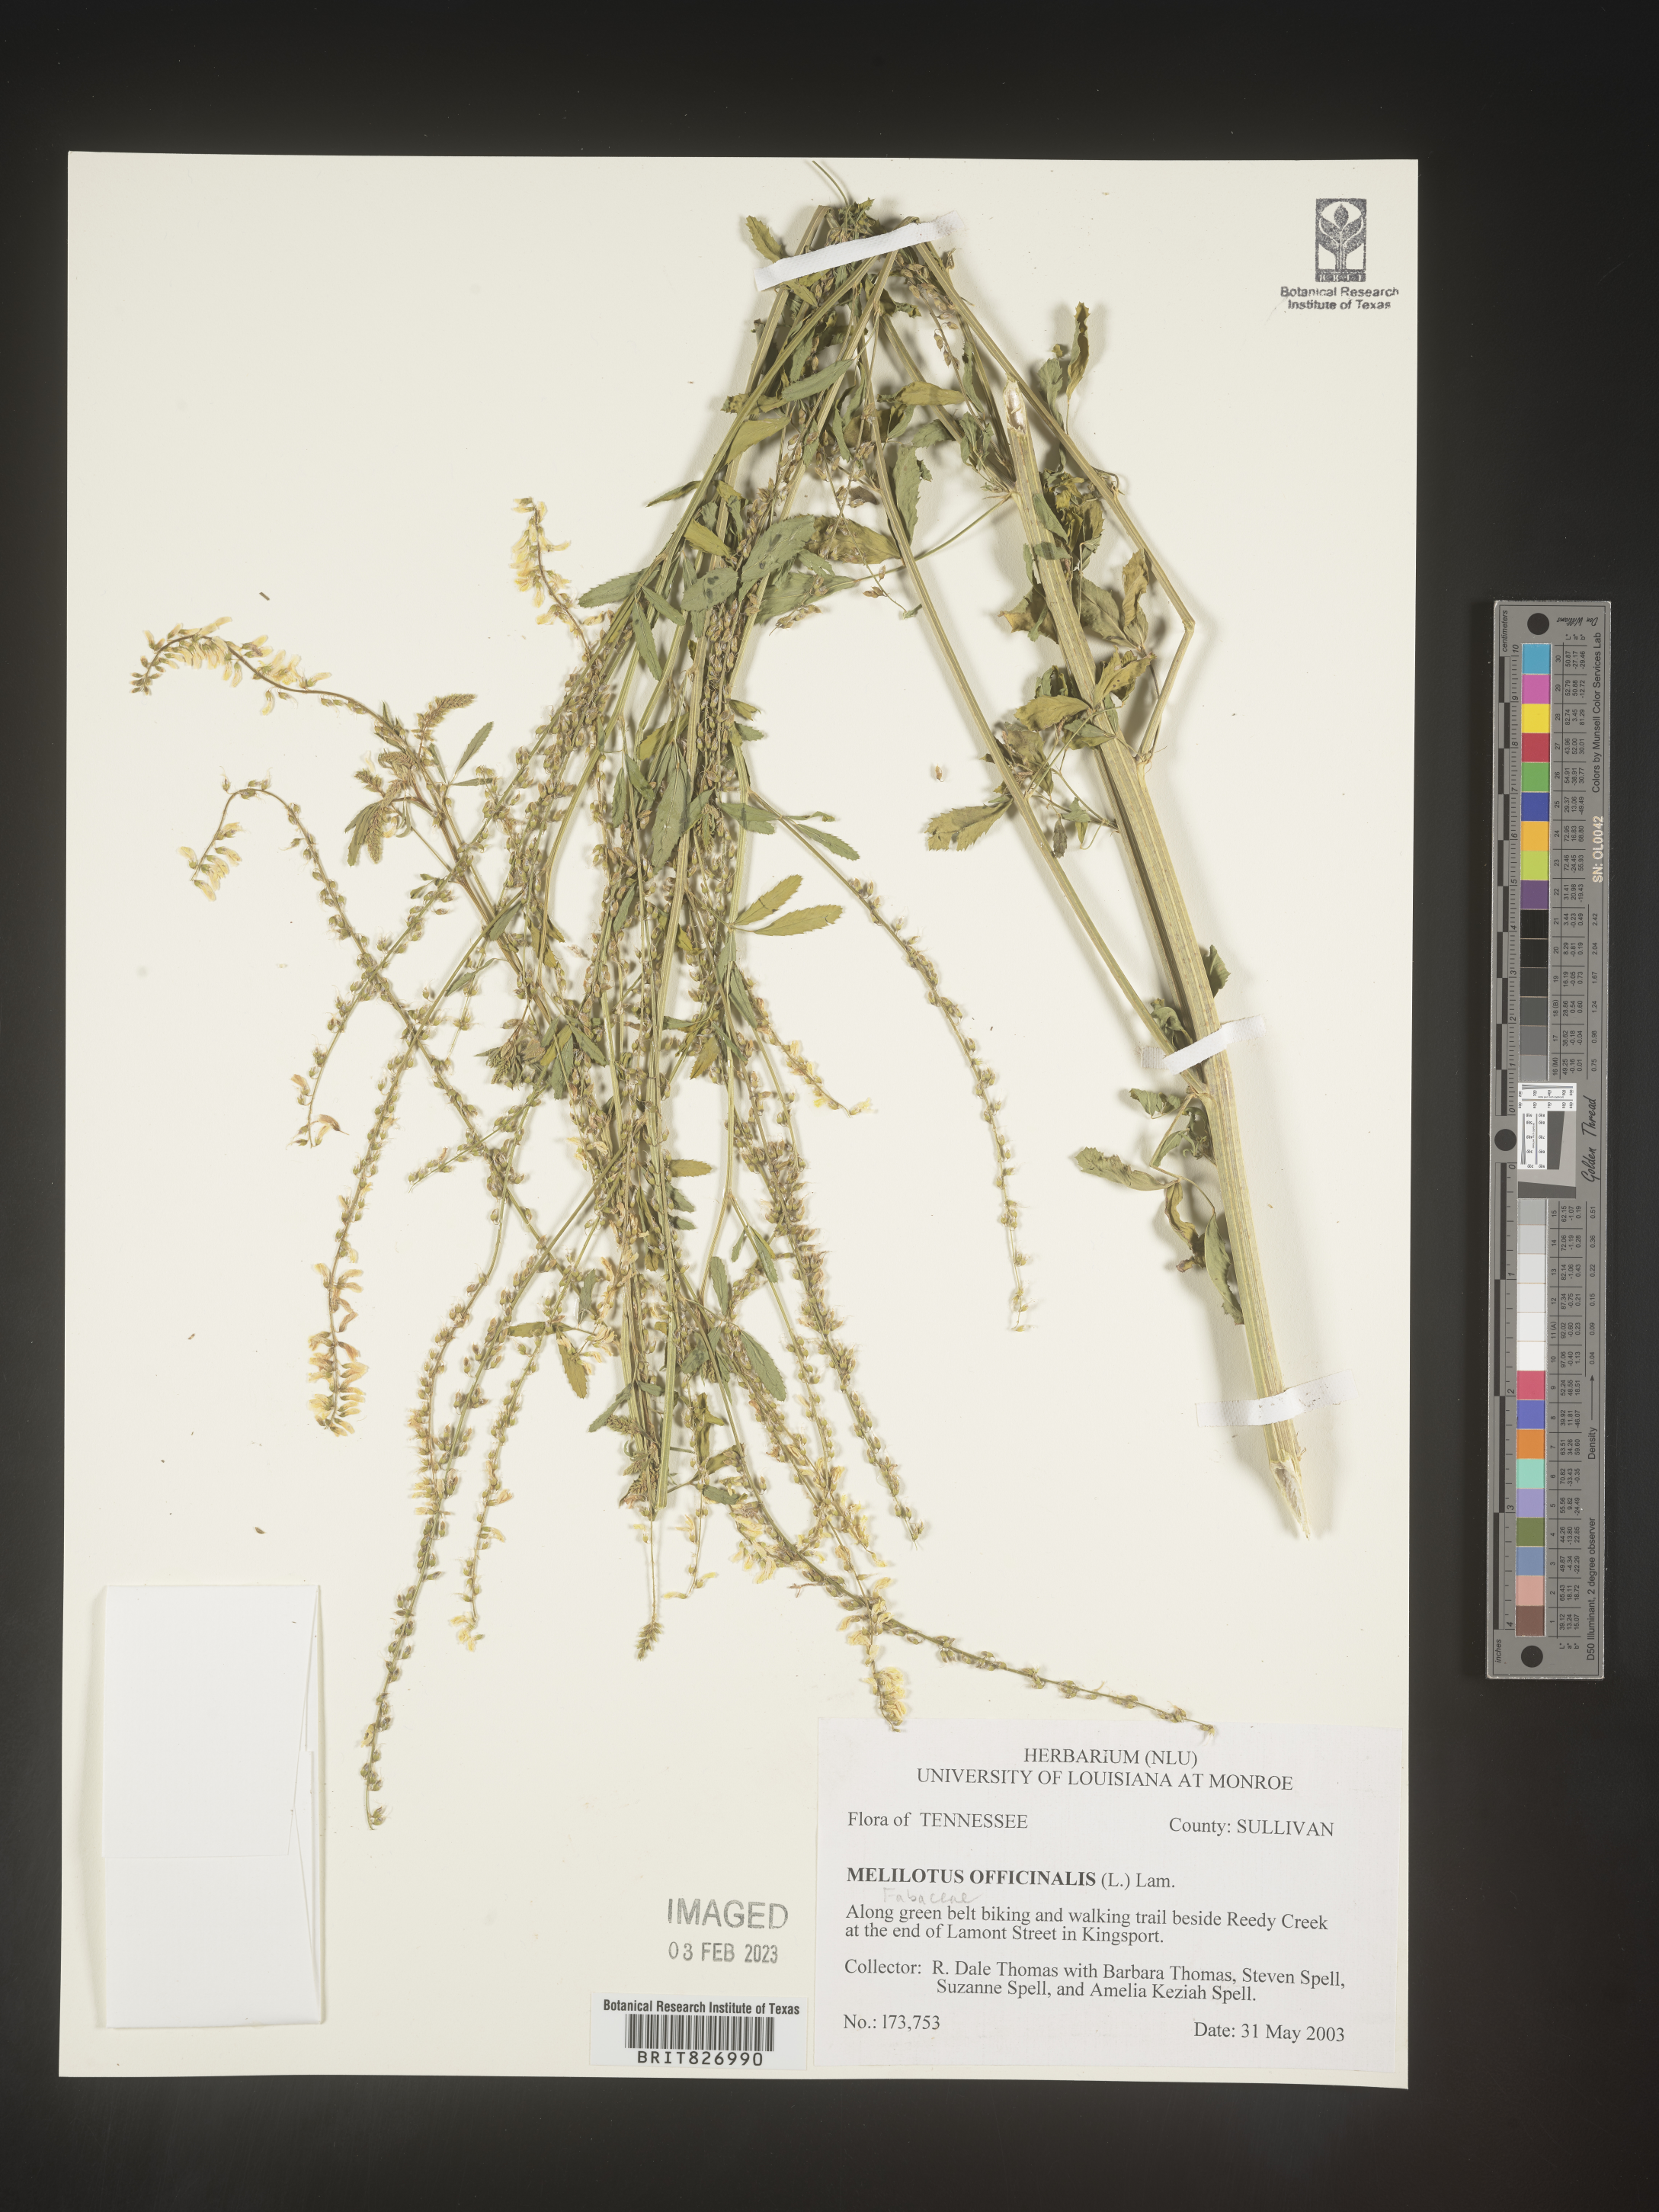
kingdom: Plantae
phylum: Tracheophyta
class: Magnoliopsida
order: Fabales
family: Fabaceae
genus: Melilotus
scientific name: Melilotus officinalis
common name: Sweetclover
